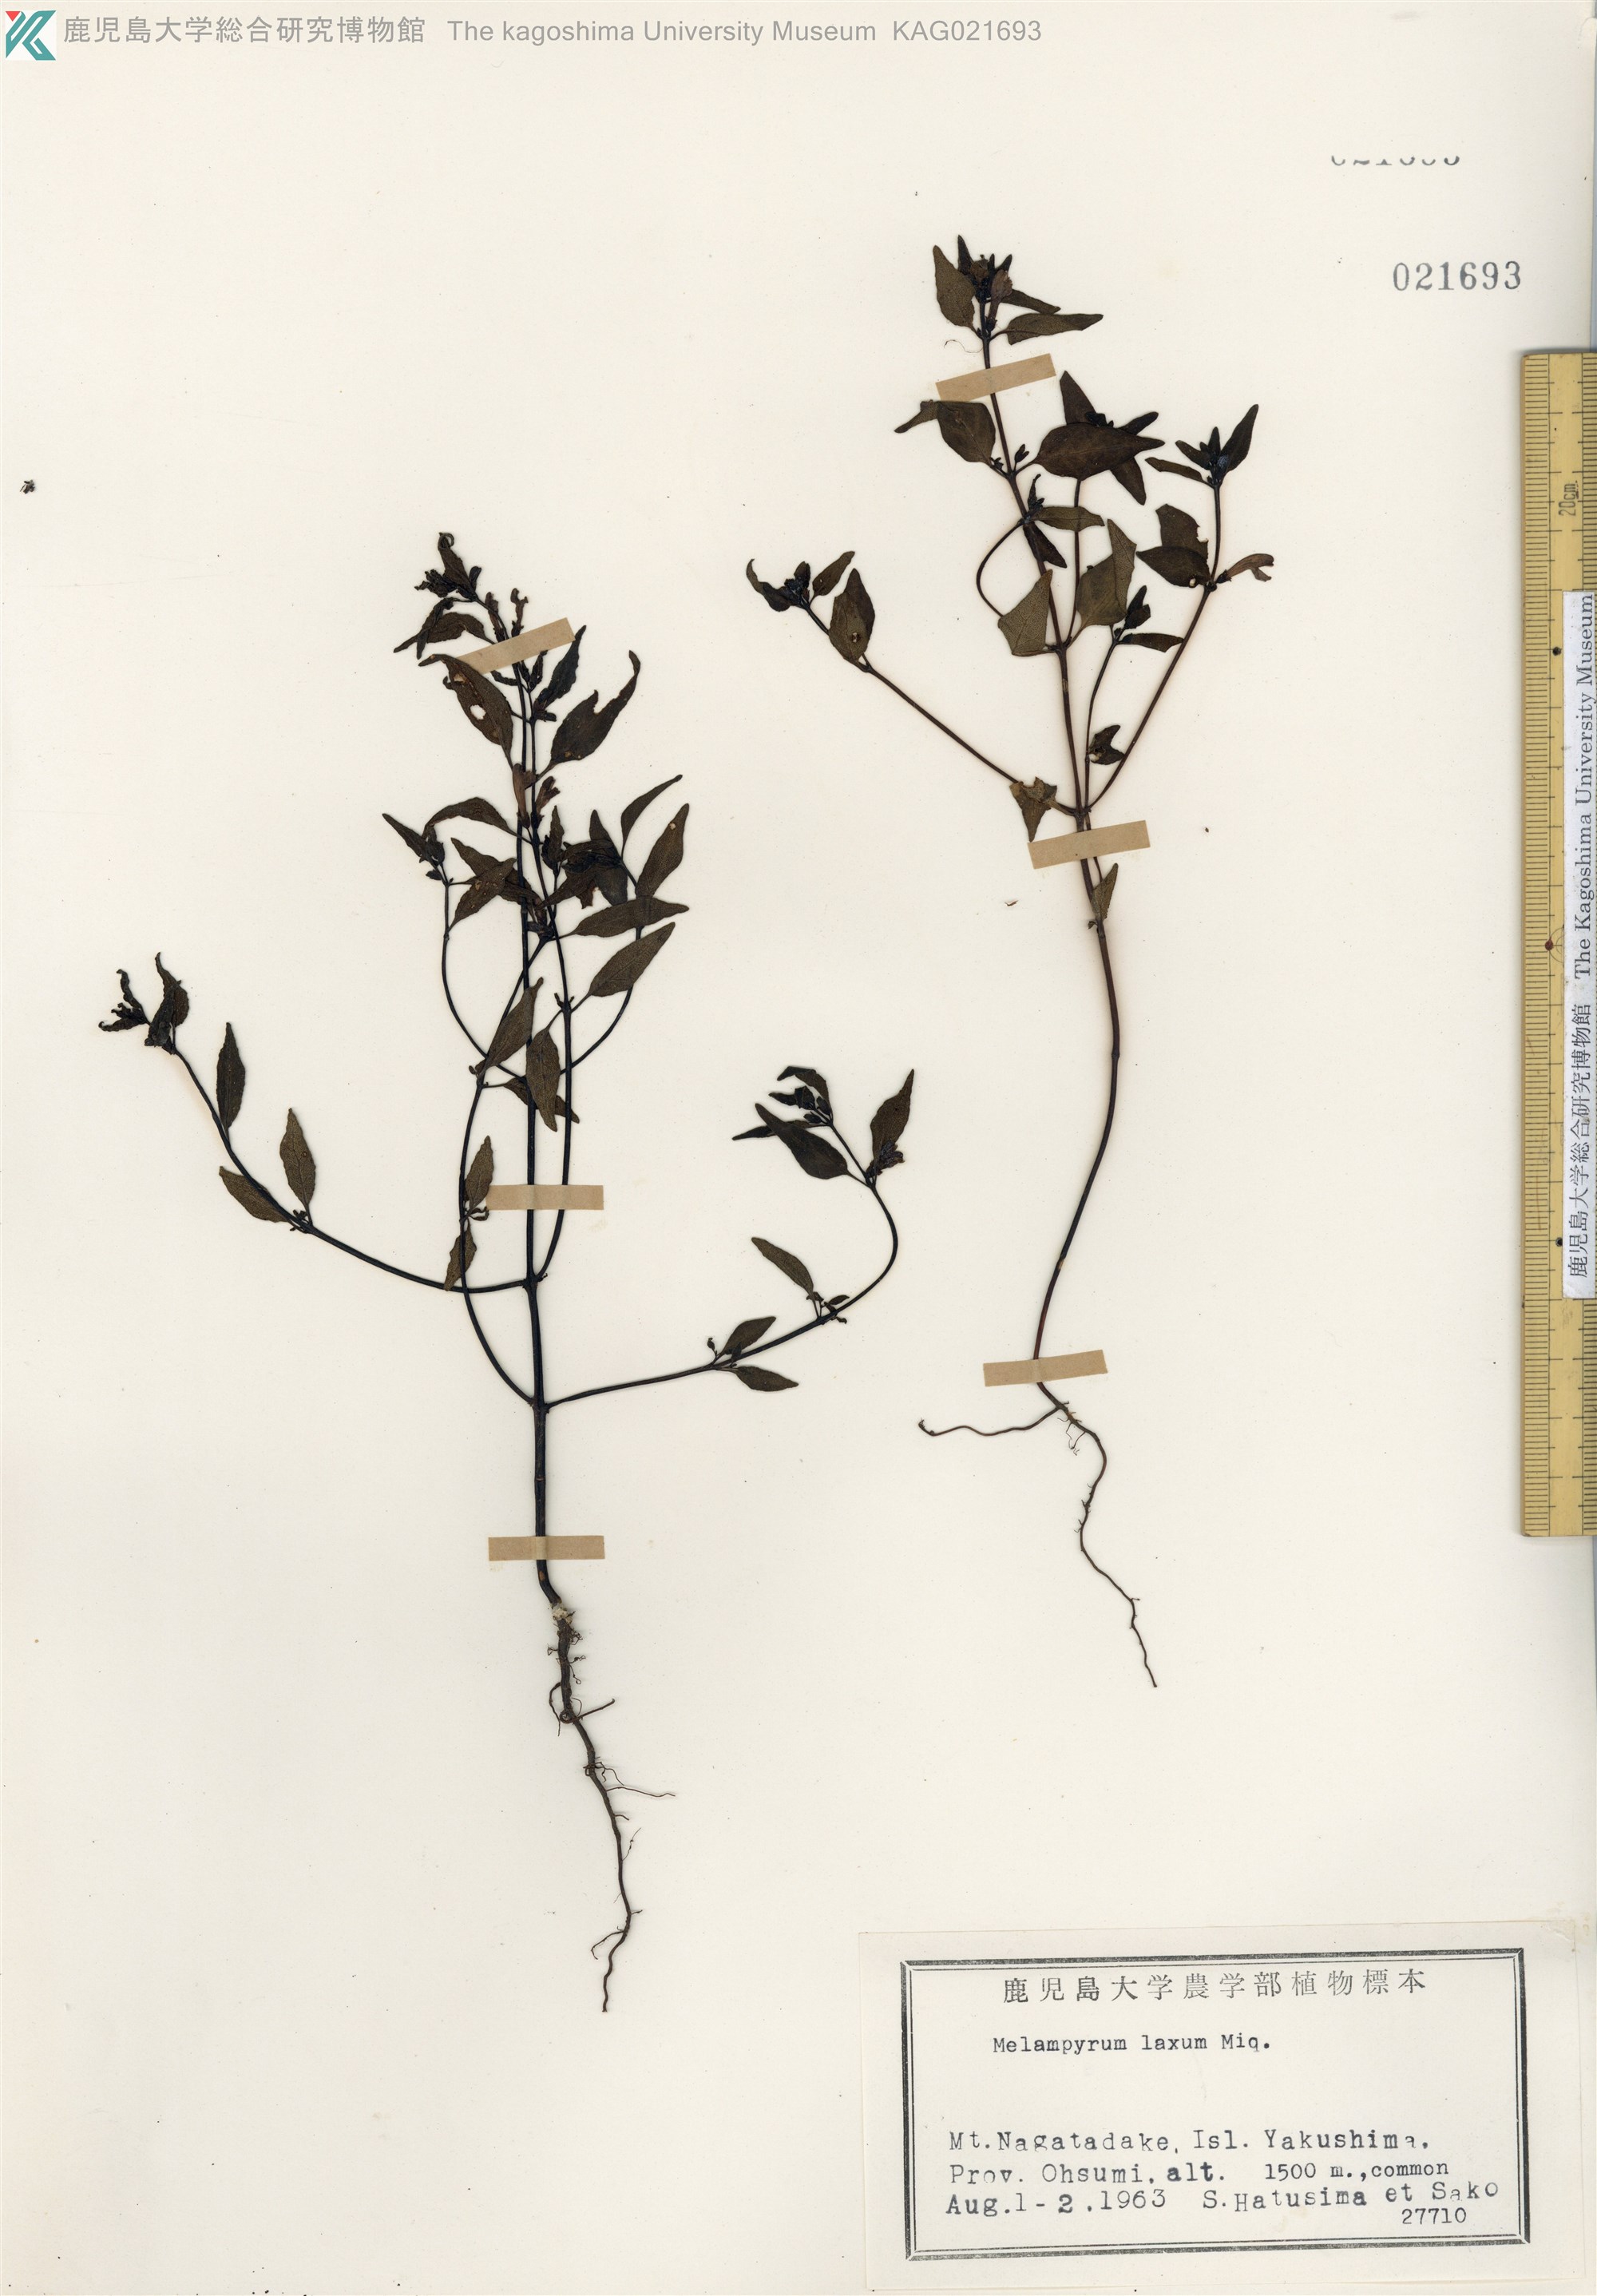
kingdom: Plantae
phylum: Tracheophyta
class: Magnoliopsida
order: Lamiales
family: Orobanchaceae
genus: Melampyrum
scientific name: Melampyrum laxum
